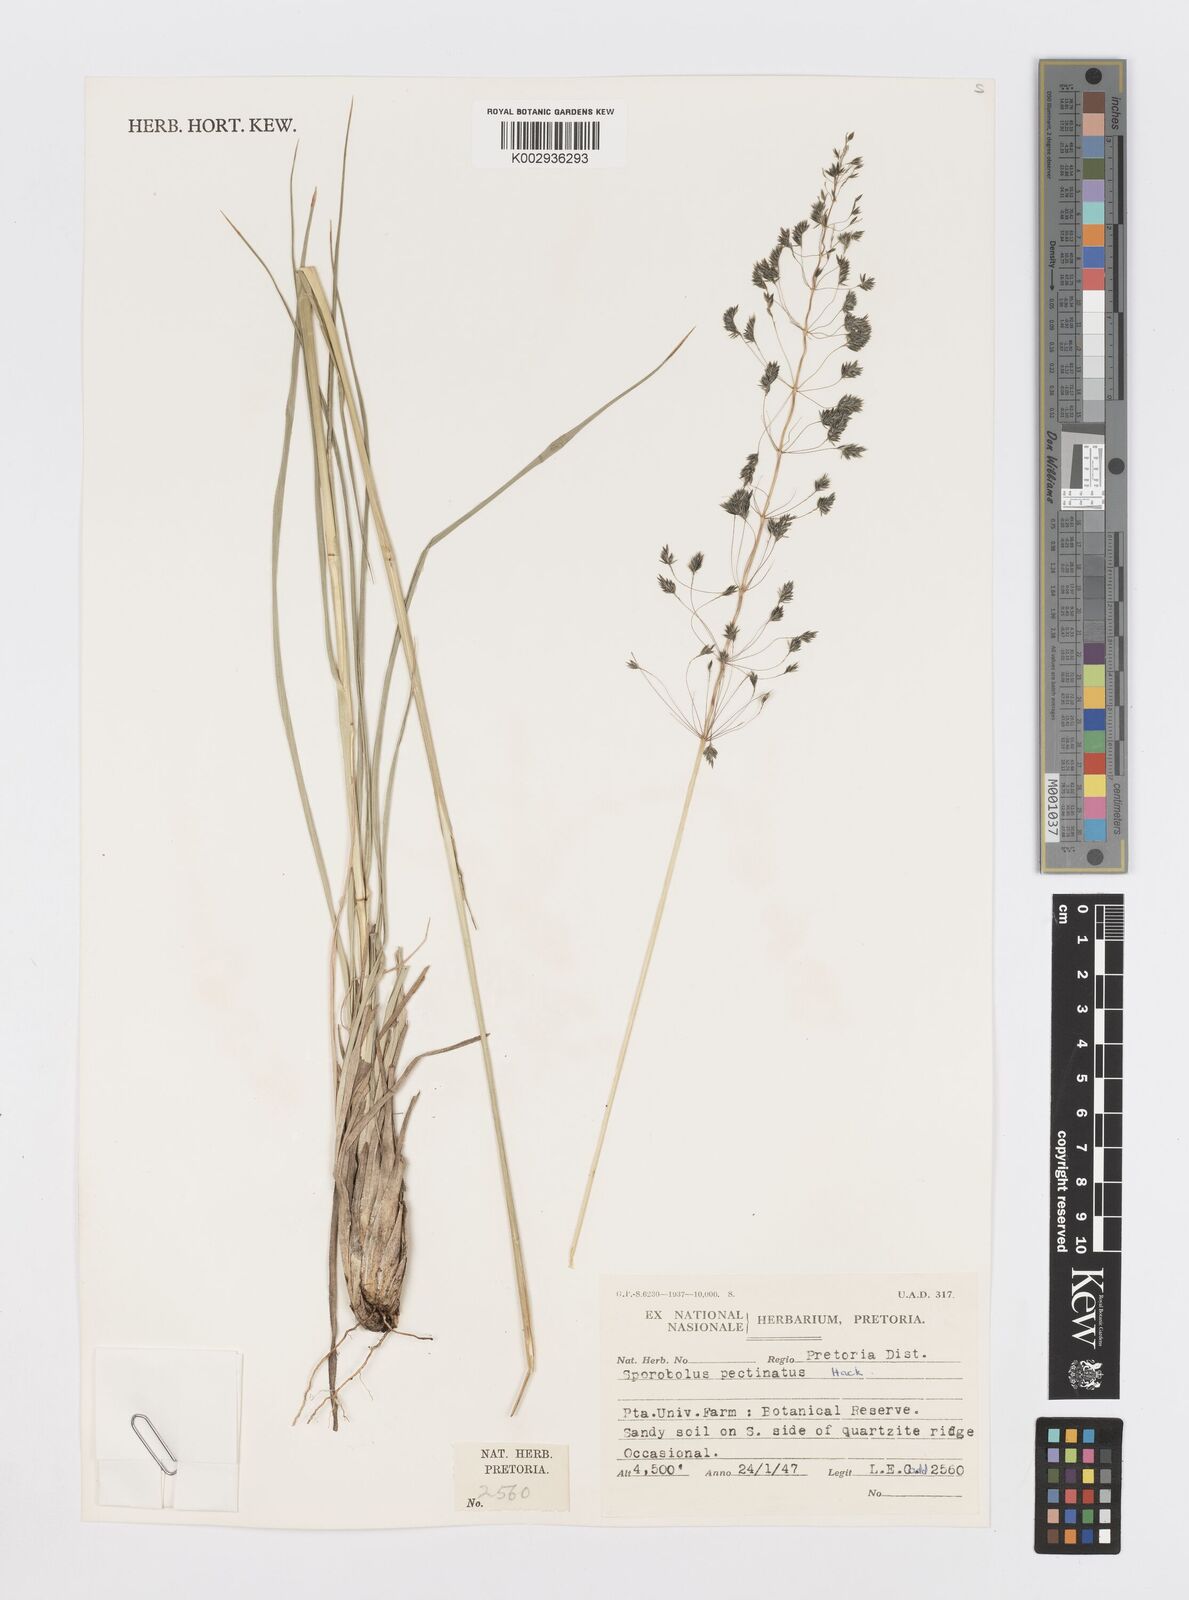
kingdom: Plantae
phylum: Tracheophyta
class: Liliopsida
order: Poales
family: Poaceae
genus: Sporobolus
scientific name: Sporobolus pectinatus
